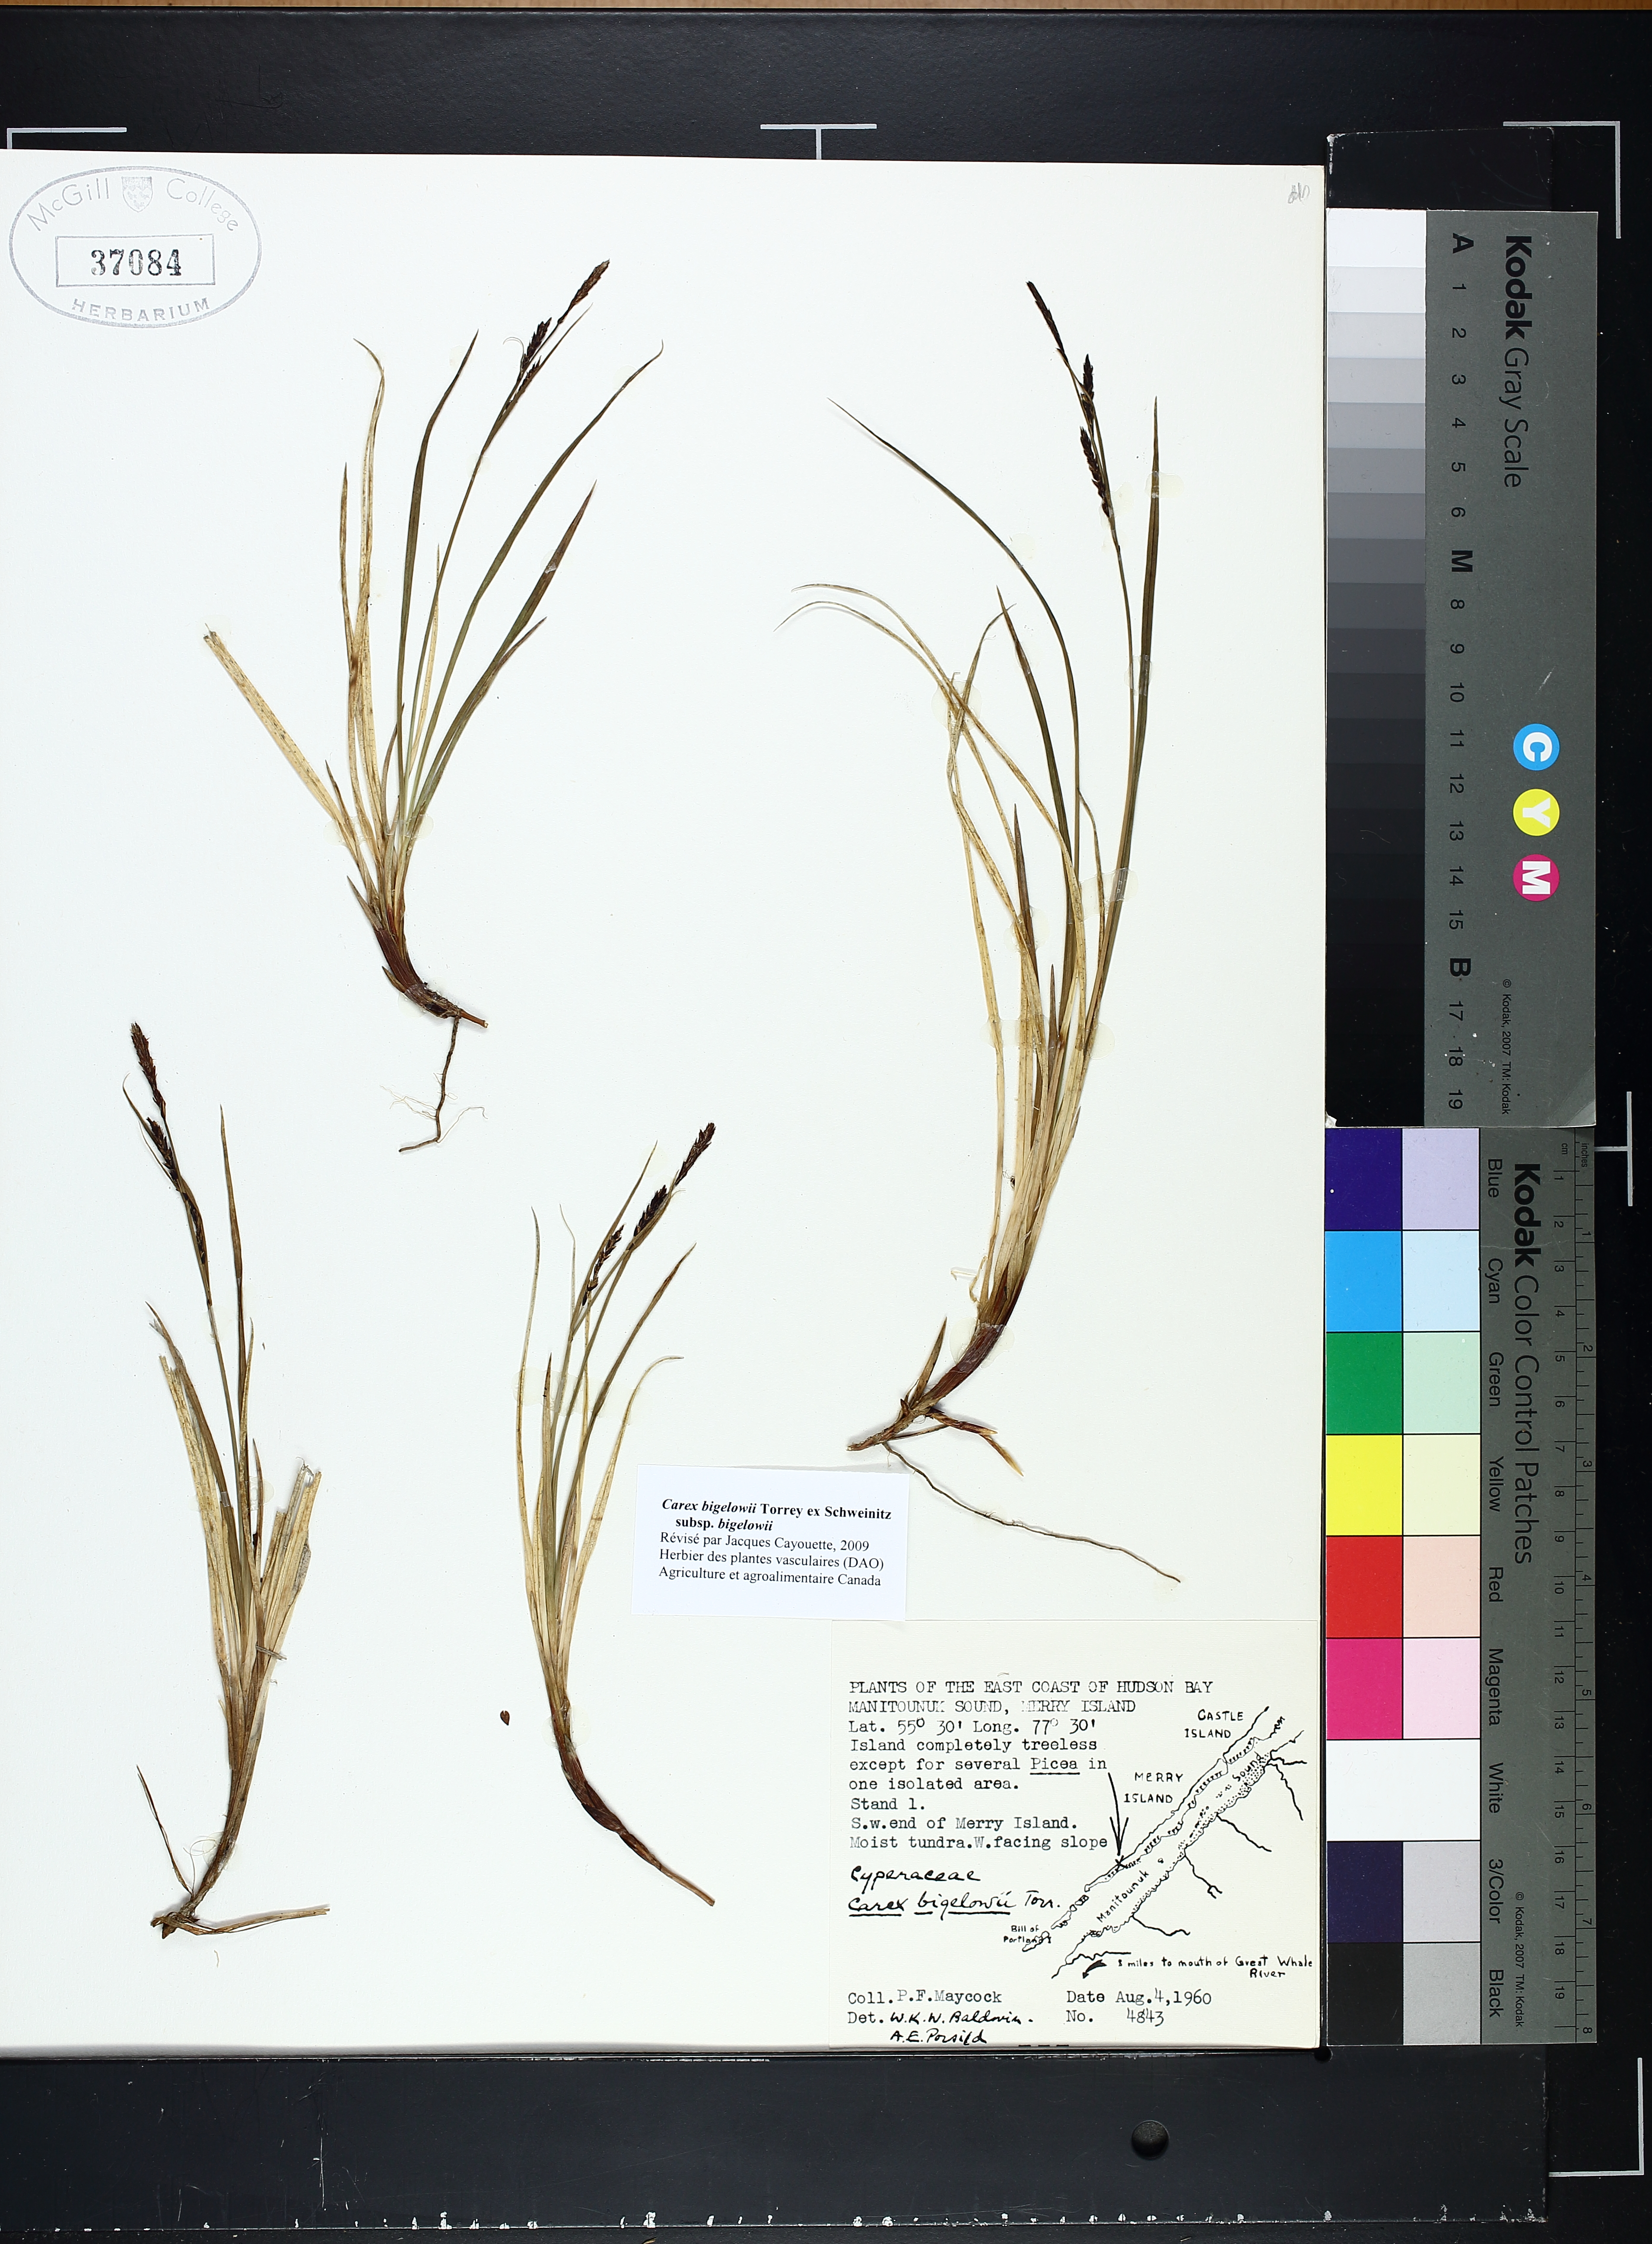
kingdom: Plantae
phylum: Tracheophyta
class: Liliopsida
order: Poales
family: Cyperaceae
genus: Carex
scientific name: Carex bigelowii
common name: Stiff sedge
